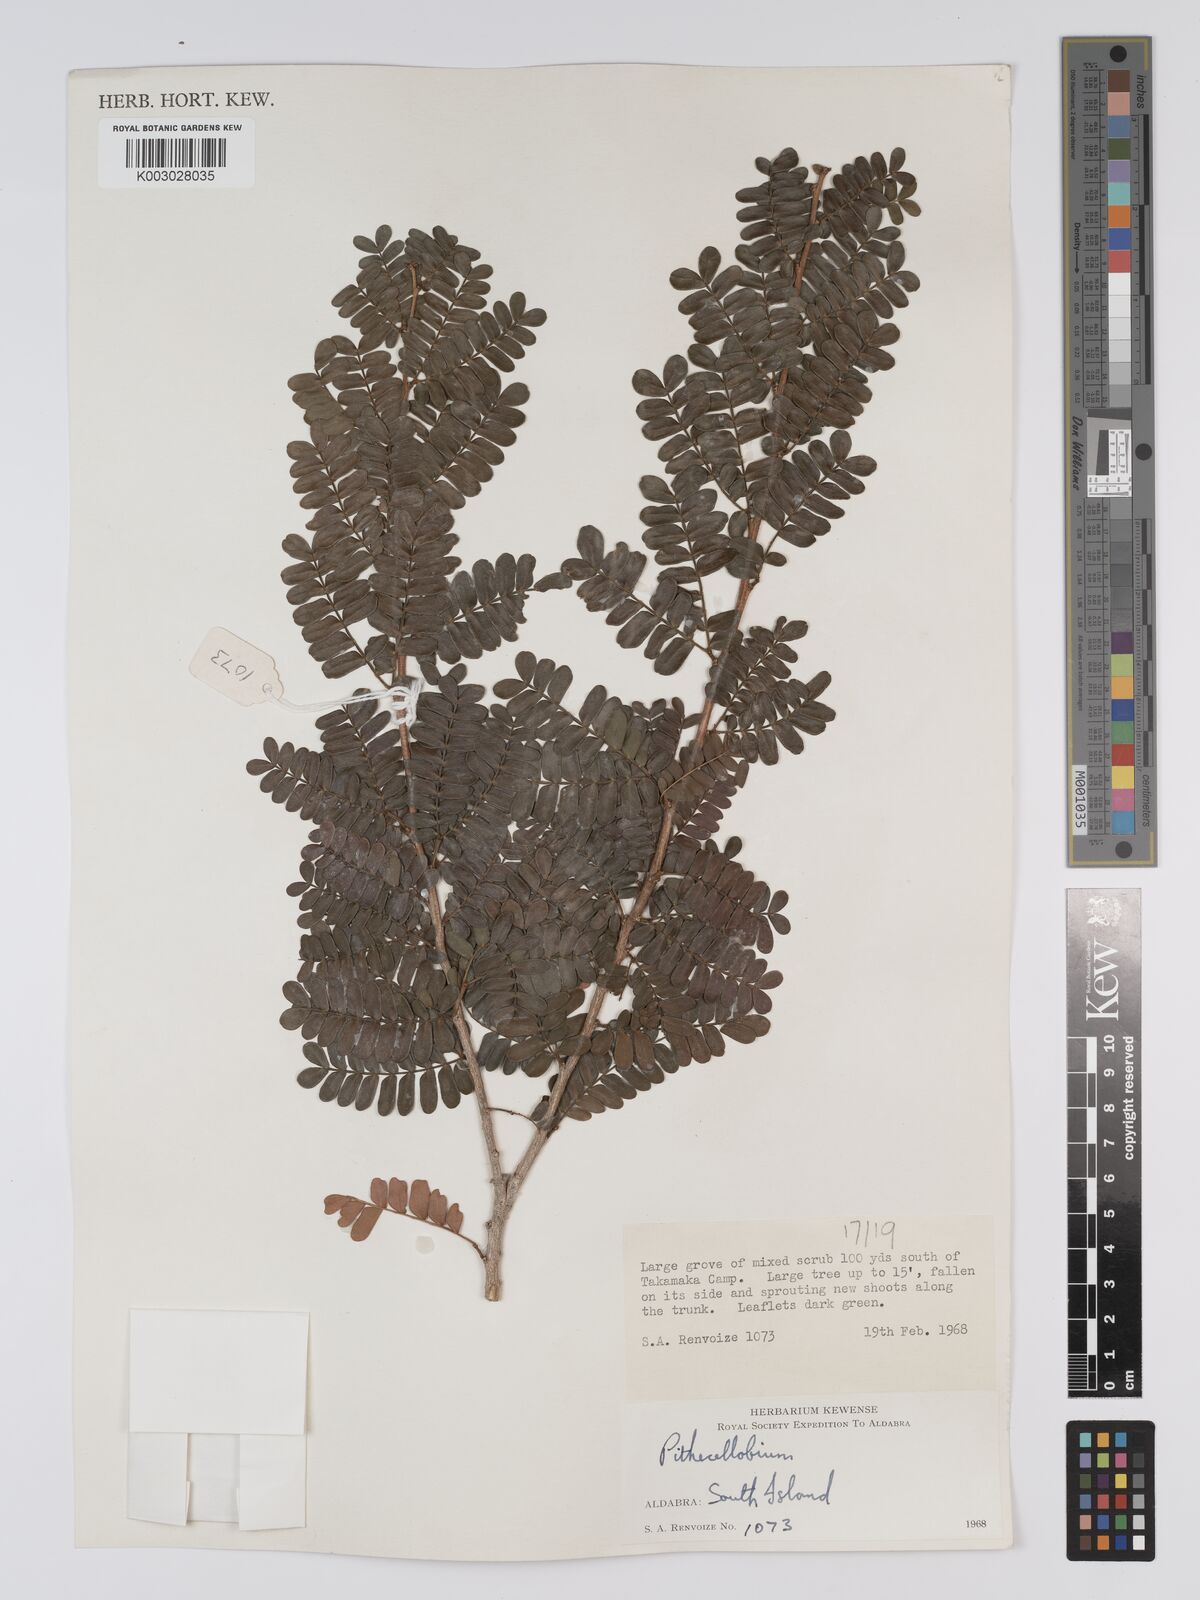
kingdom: Plantae
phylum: Tracheophyta
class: Magnoliopsida
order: Fabales
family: Fabaceae
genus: Viguieranthus
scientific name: Viguieranthus alternans
